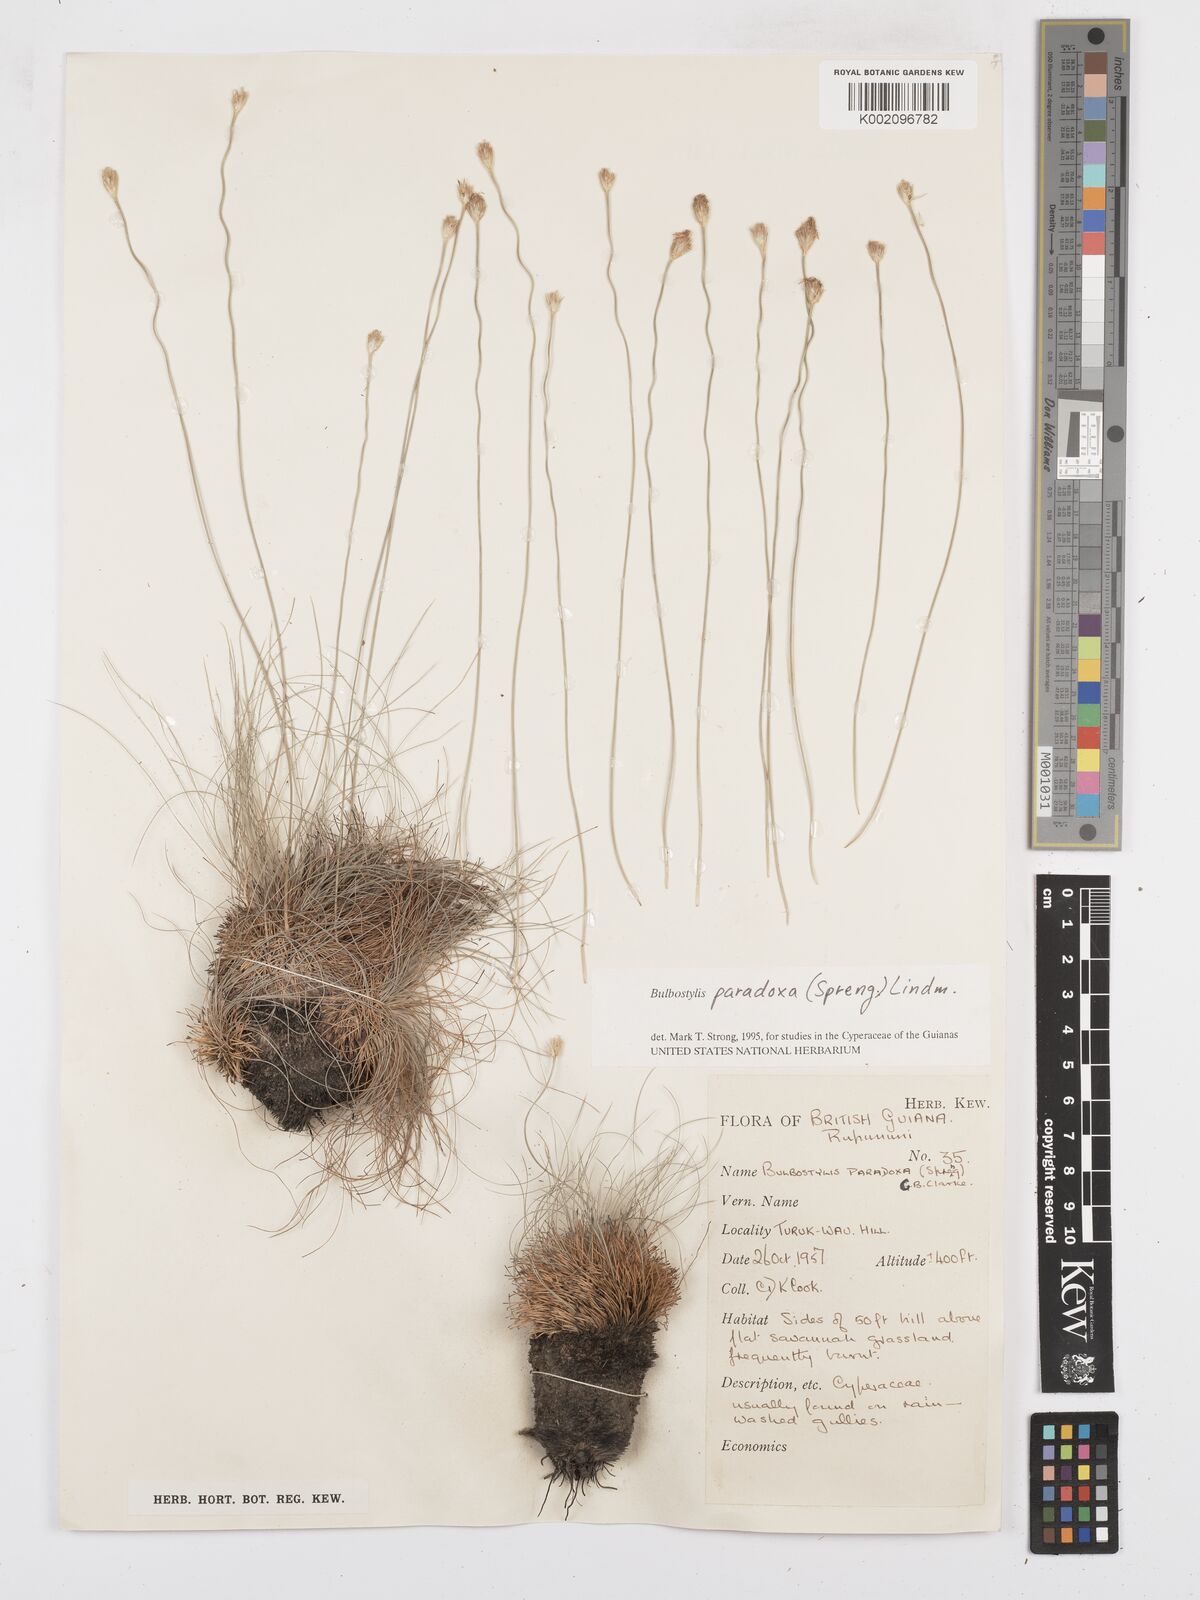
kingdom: Plantae
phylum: Tracheophyta
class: Liliopsida
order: Poales
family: Cyperaceae
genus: Bulbostylis
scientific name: Bulbostylis paradoxa
